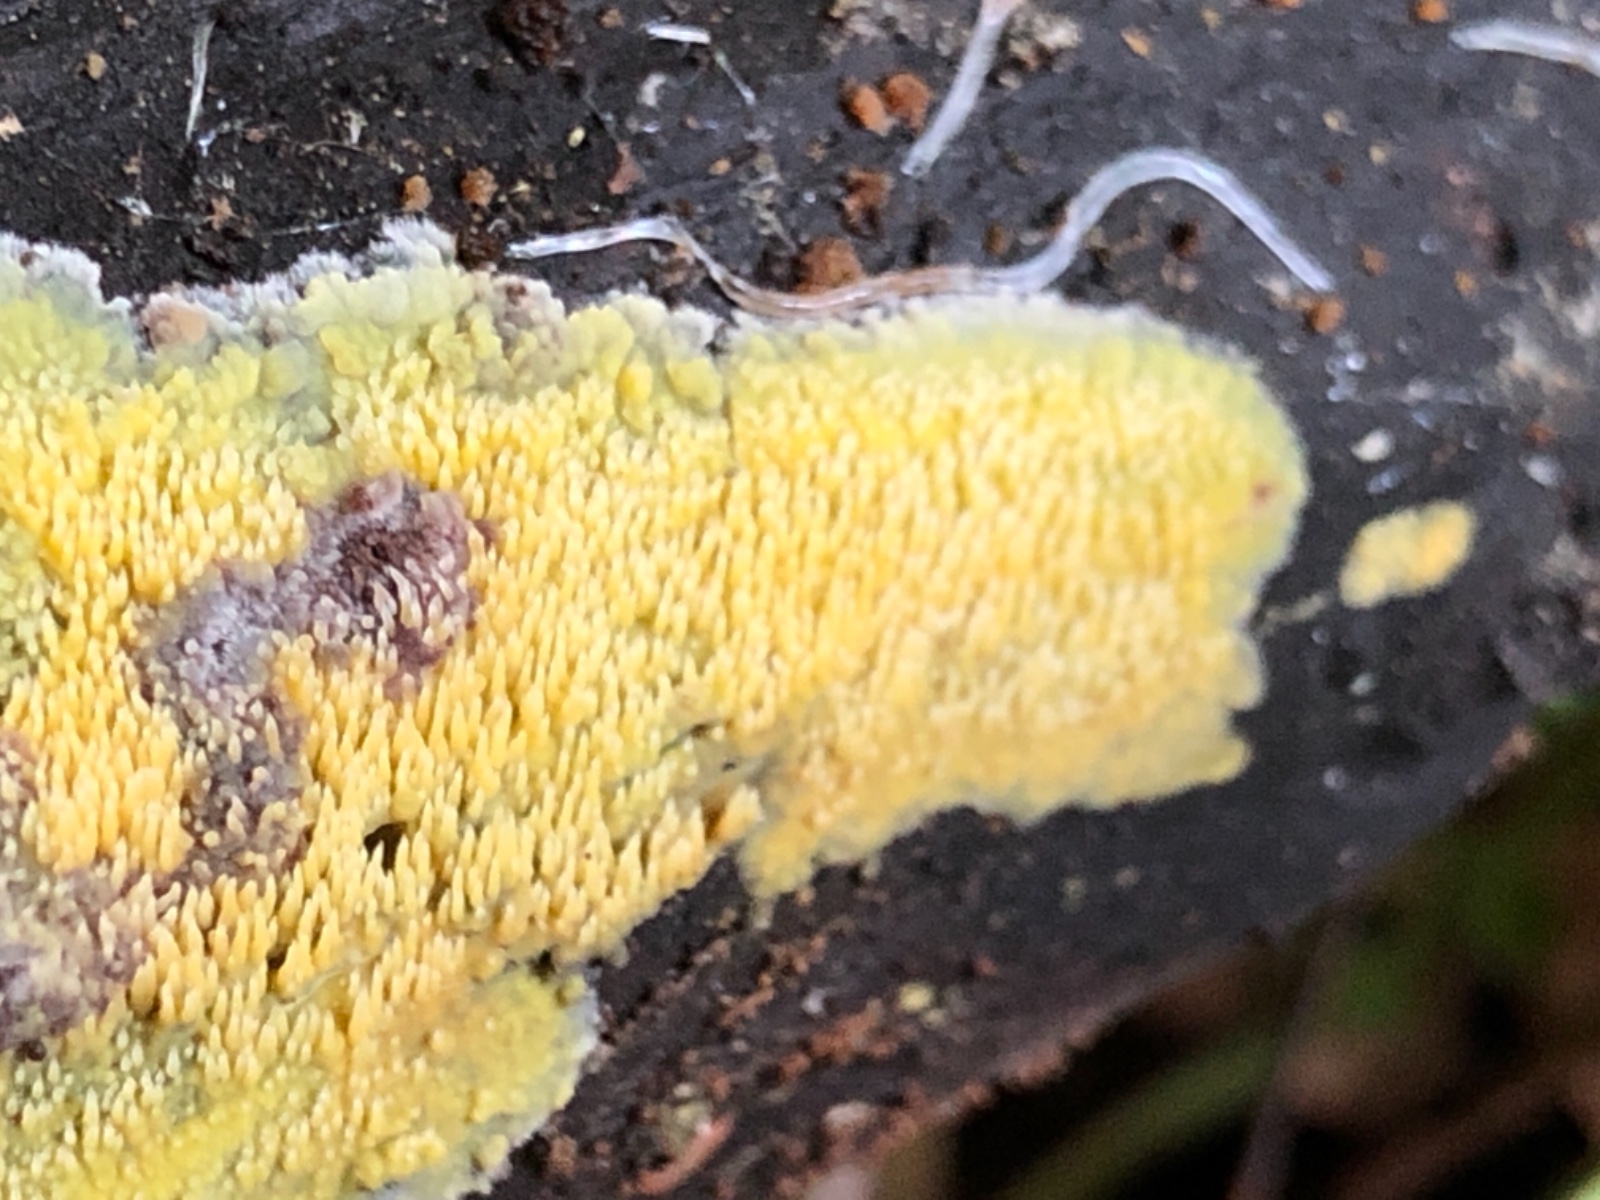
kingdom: Fungi
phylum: Basidiomycota
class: Agaricomycetes
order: Polyporales
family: Meruliaceae
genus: Mycoacia
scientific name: Mycoacia uda
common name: citrongul vokspig
